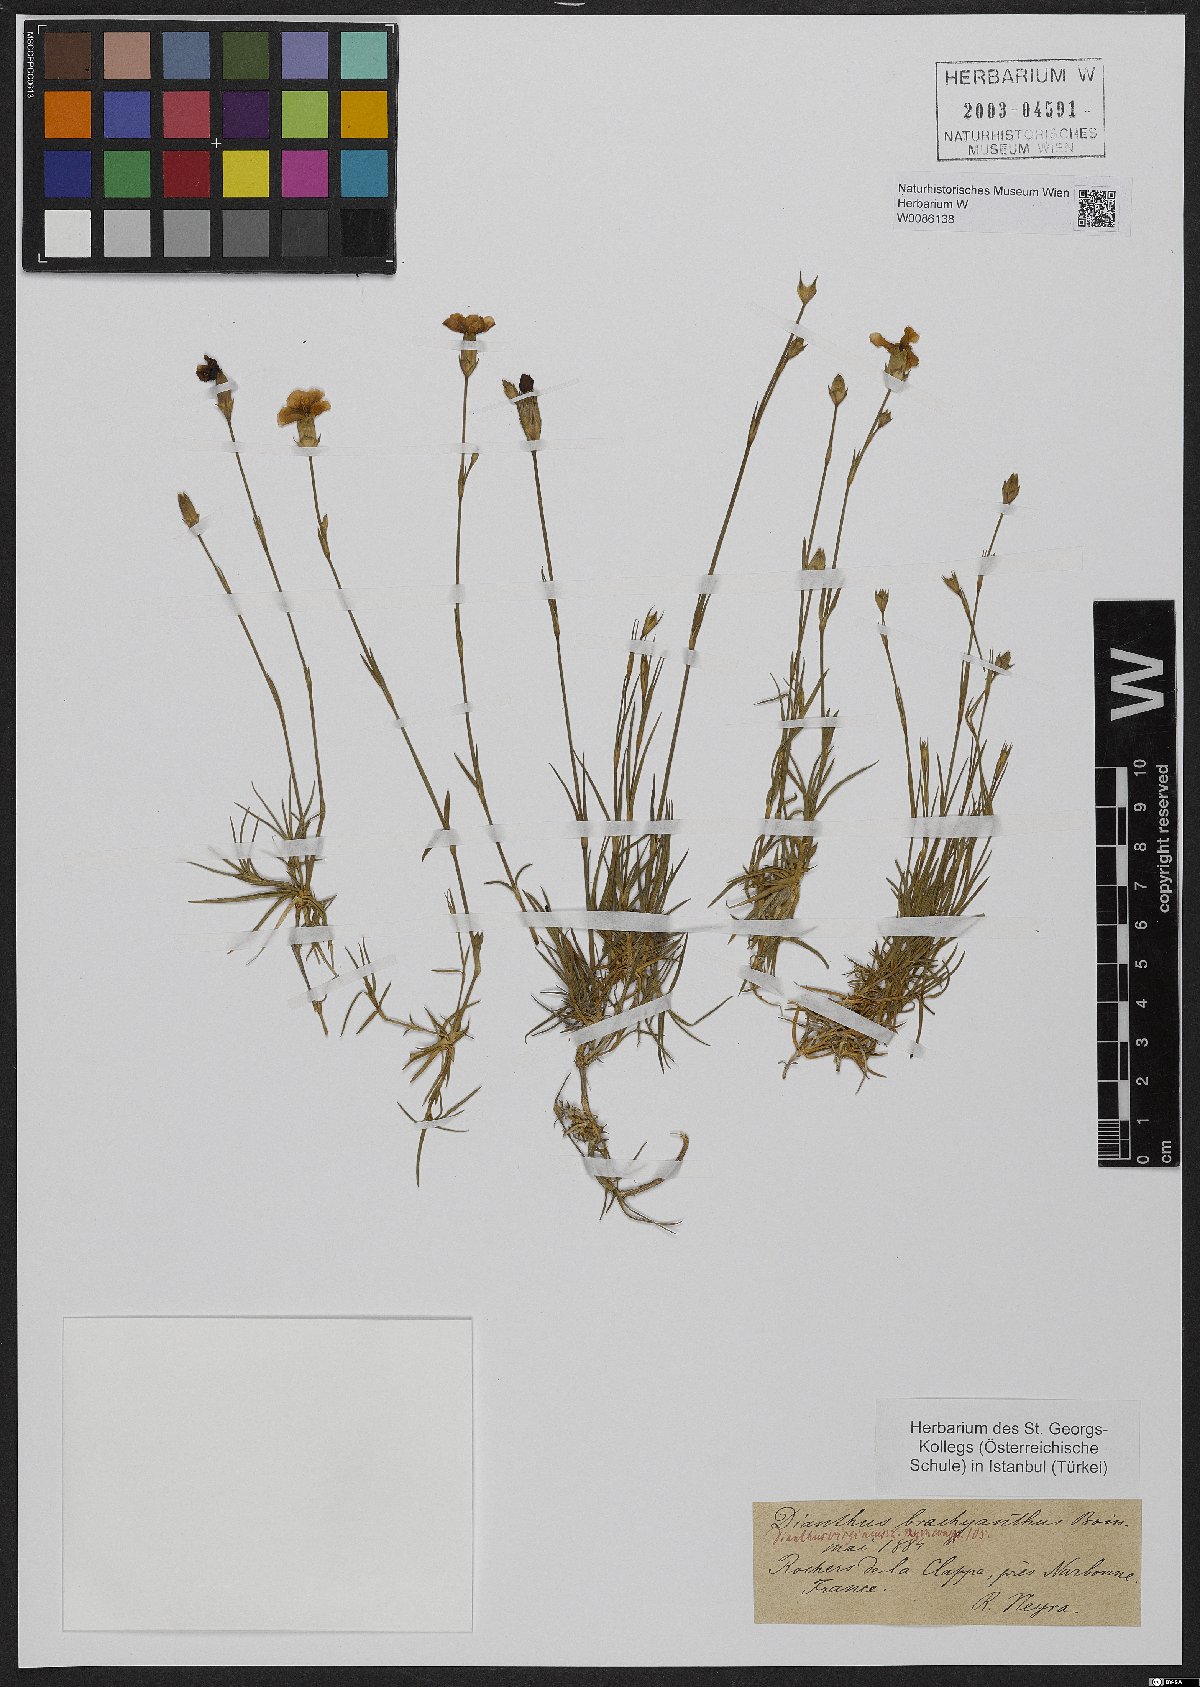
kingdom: Plantae
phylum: Tracheophyta
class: Magnoliopsida
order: Caryophyllales
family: Caryophyllaceae
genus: Dianthus
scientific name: Dianthus pungens
